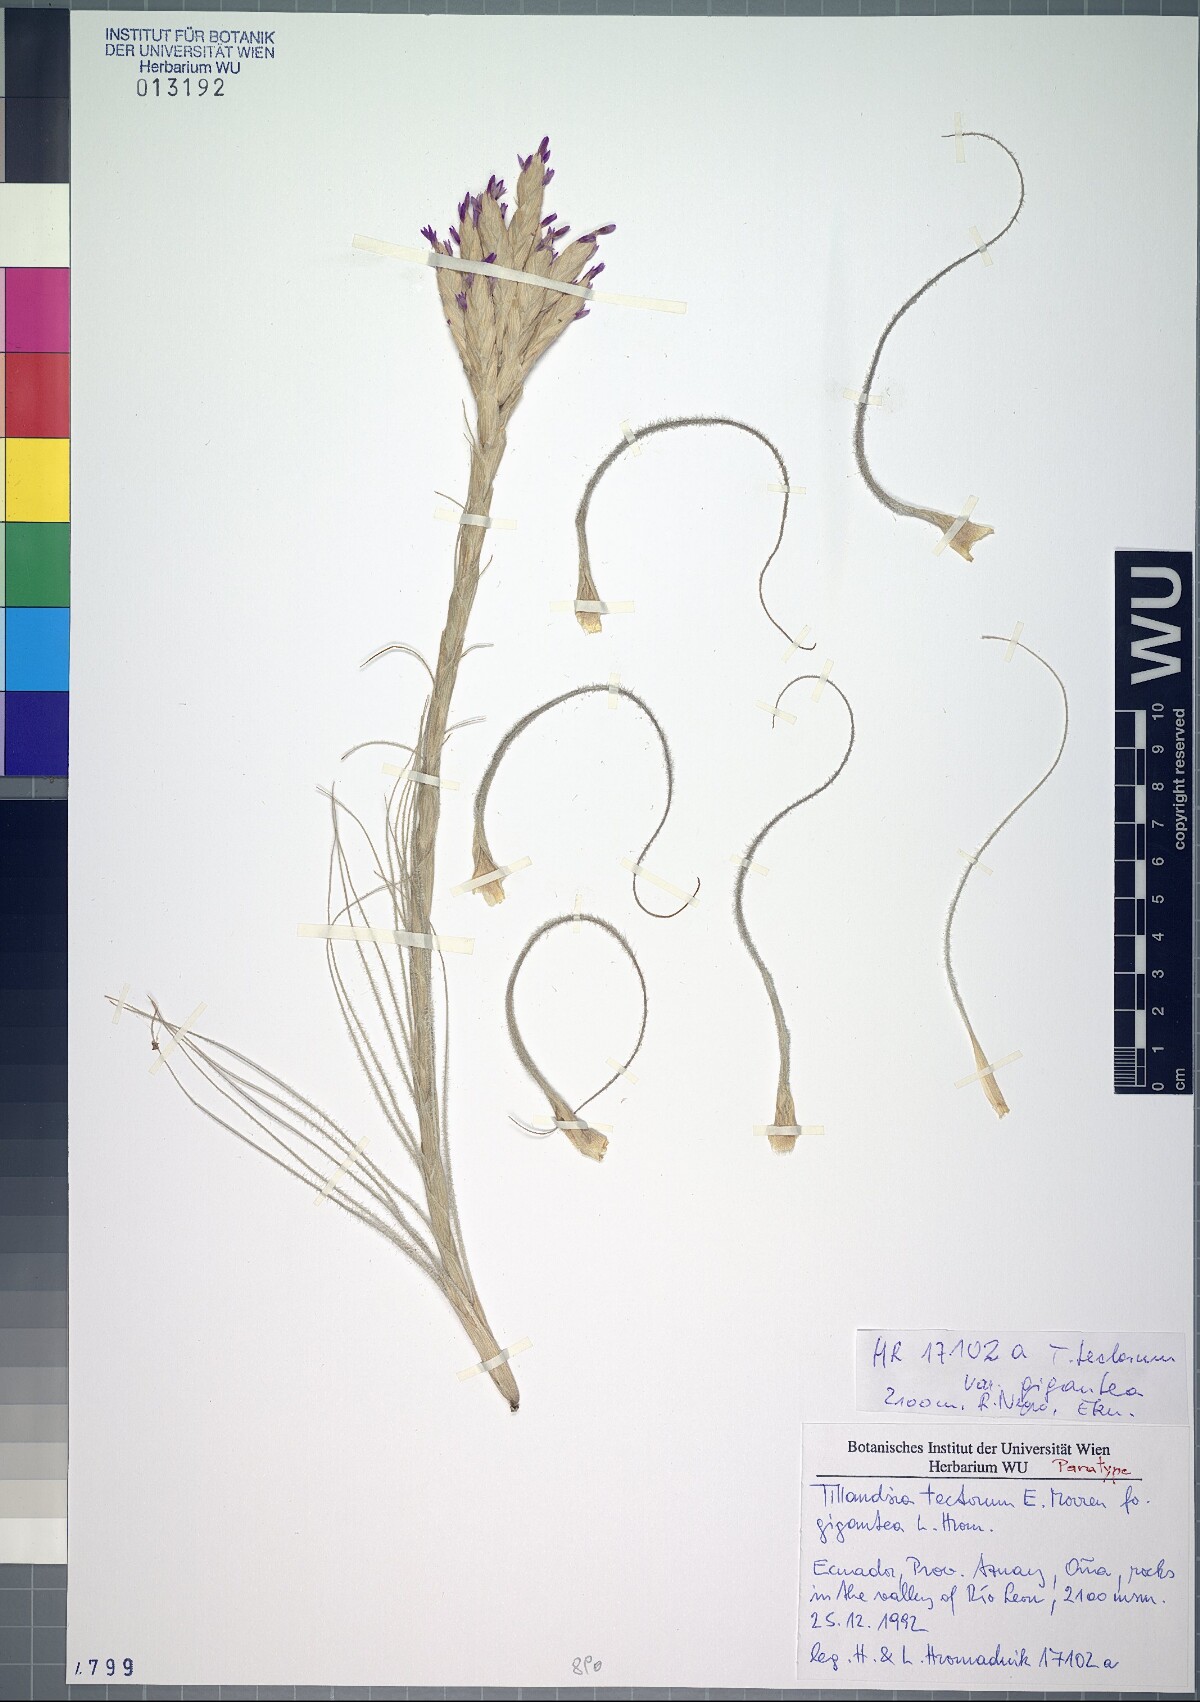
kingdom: Plantae
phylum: Tracheophyta
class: Liliopsida
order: Poales
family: Bromeliaceae
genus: Tillandsia
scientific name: Tillandsia tectorum
